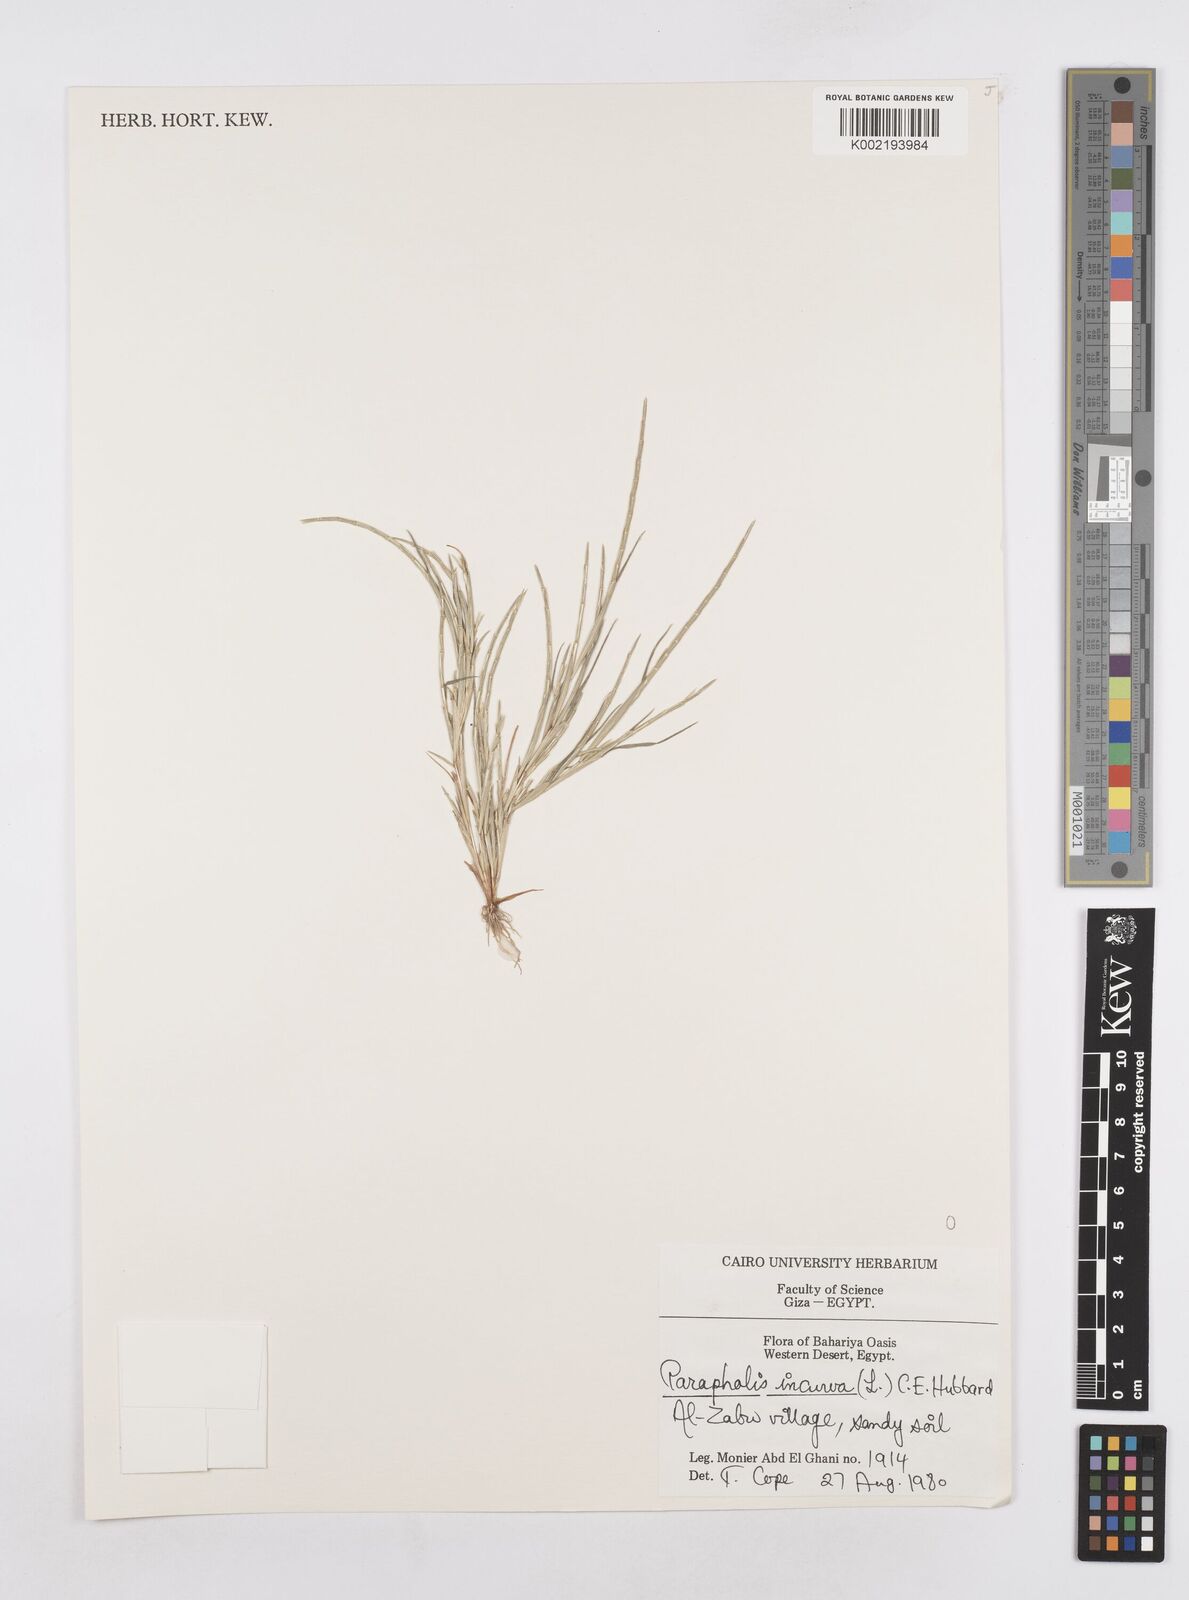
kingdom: Plantae
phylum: Tracheophyta
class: Liliopsida
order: Poales
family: Poaceae
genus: Parapholis
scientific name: Parapholis incurva
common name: Curved sicklegrass
